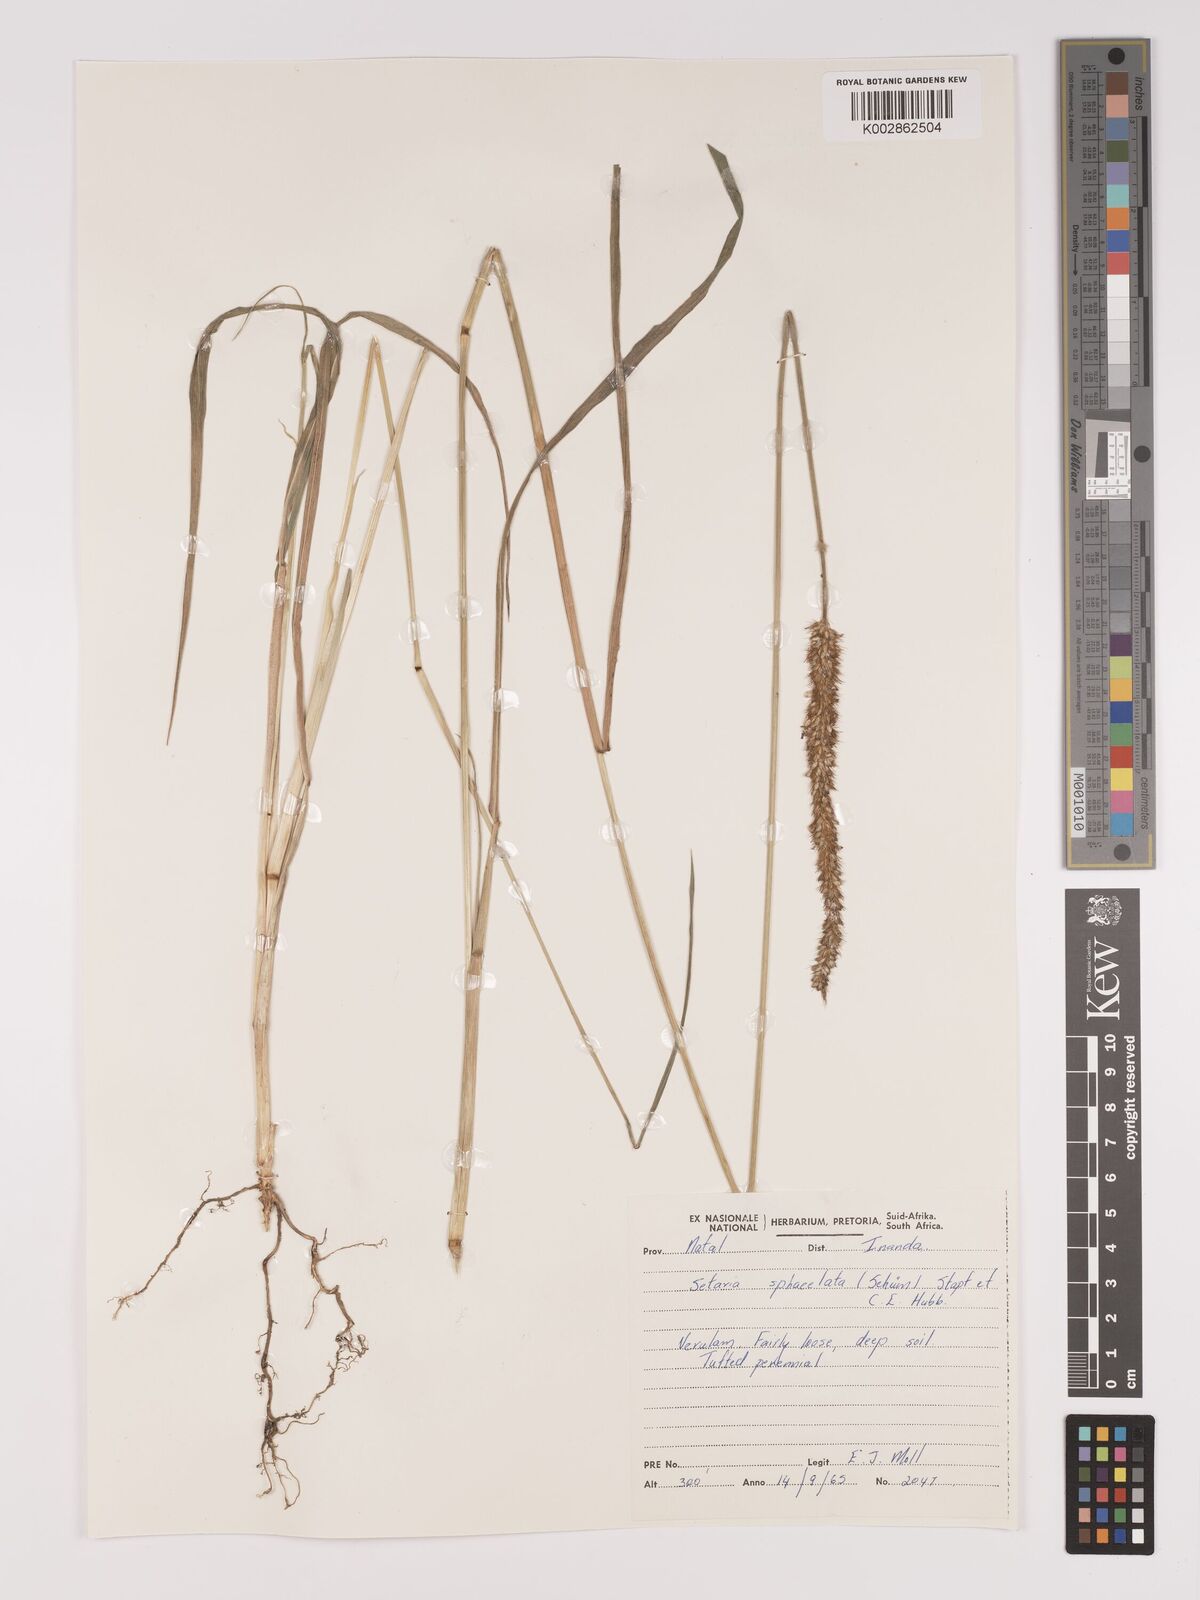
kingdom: Plantae
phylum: Tracheophyta
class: Liliopsida
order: Poales
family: Poaceae
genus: Setaria
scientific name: Setaria sphacelata
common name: African bristlegrass
